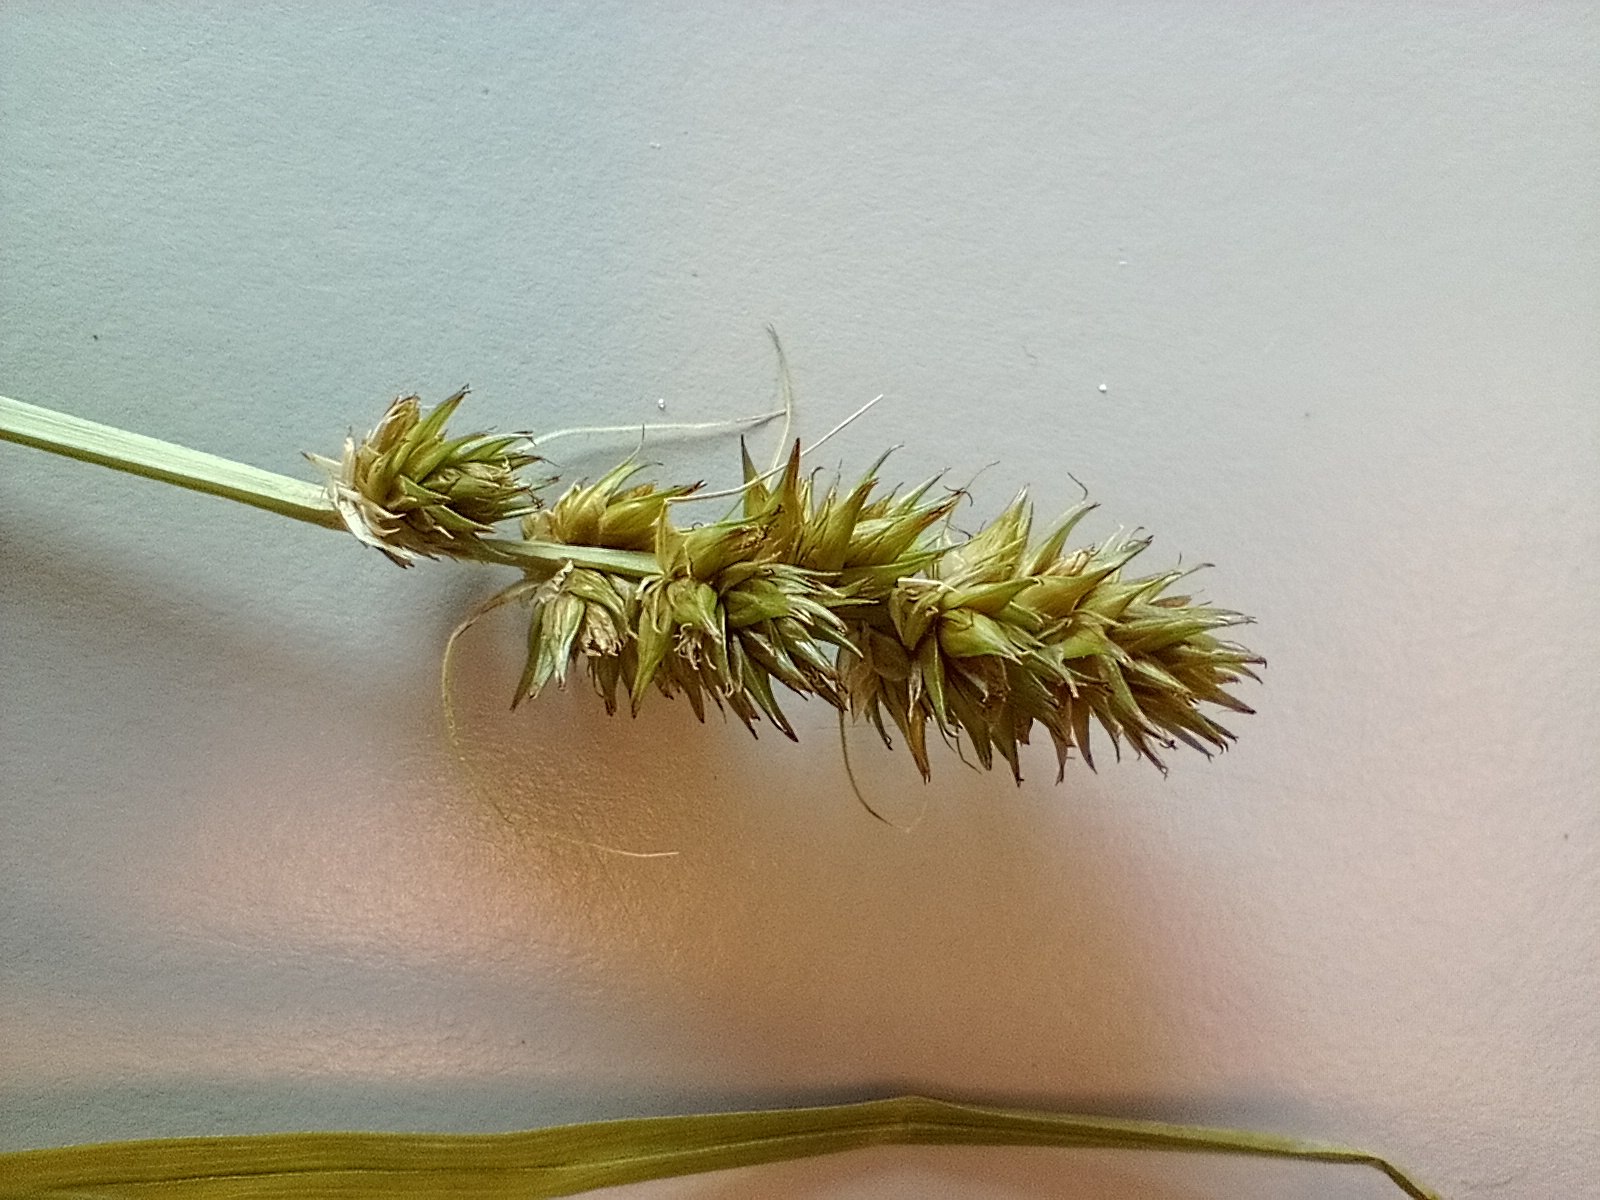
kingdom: Plantae
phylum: Tracheophyta
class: Liliopsida
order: Poales
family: Cyperaceae
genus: Carex
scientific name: Carex otrubae
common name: Sylt-star
